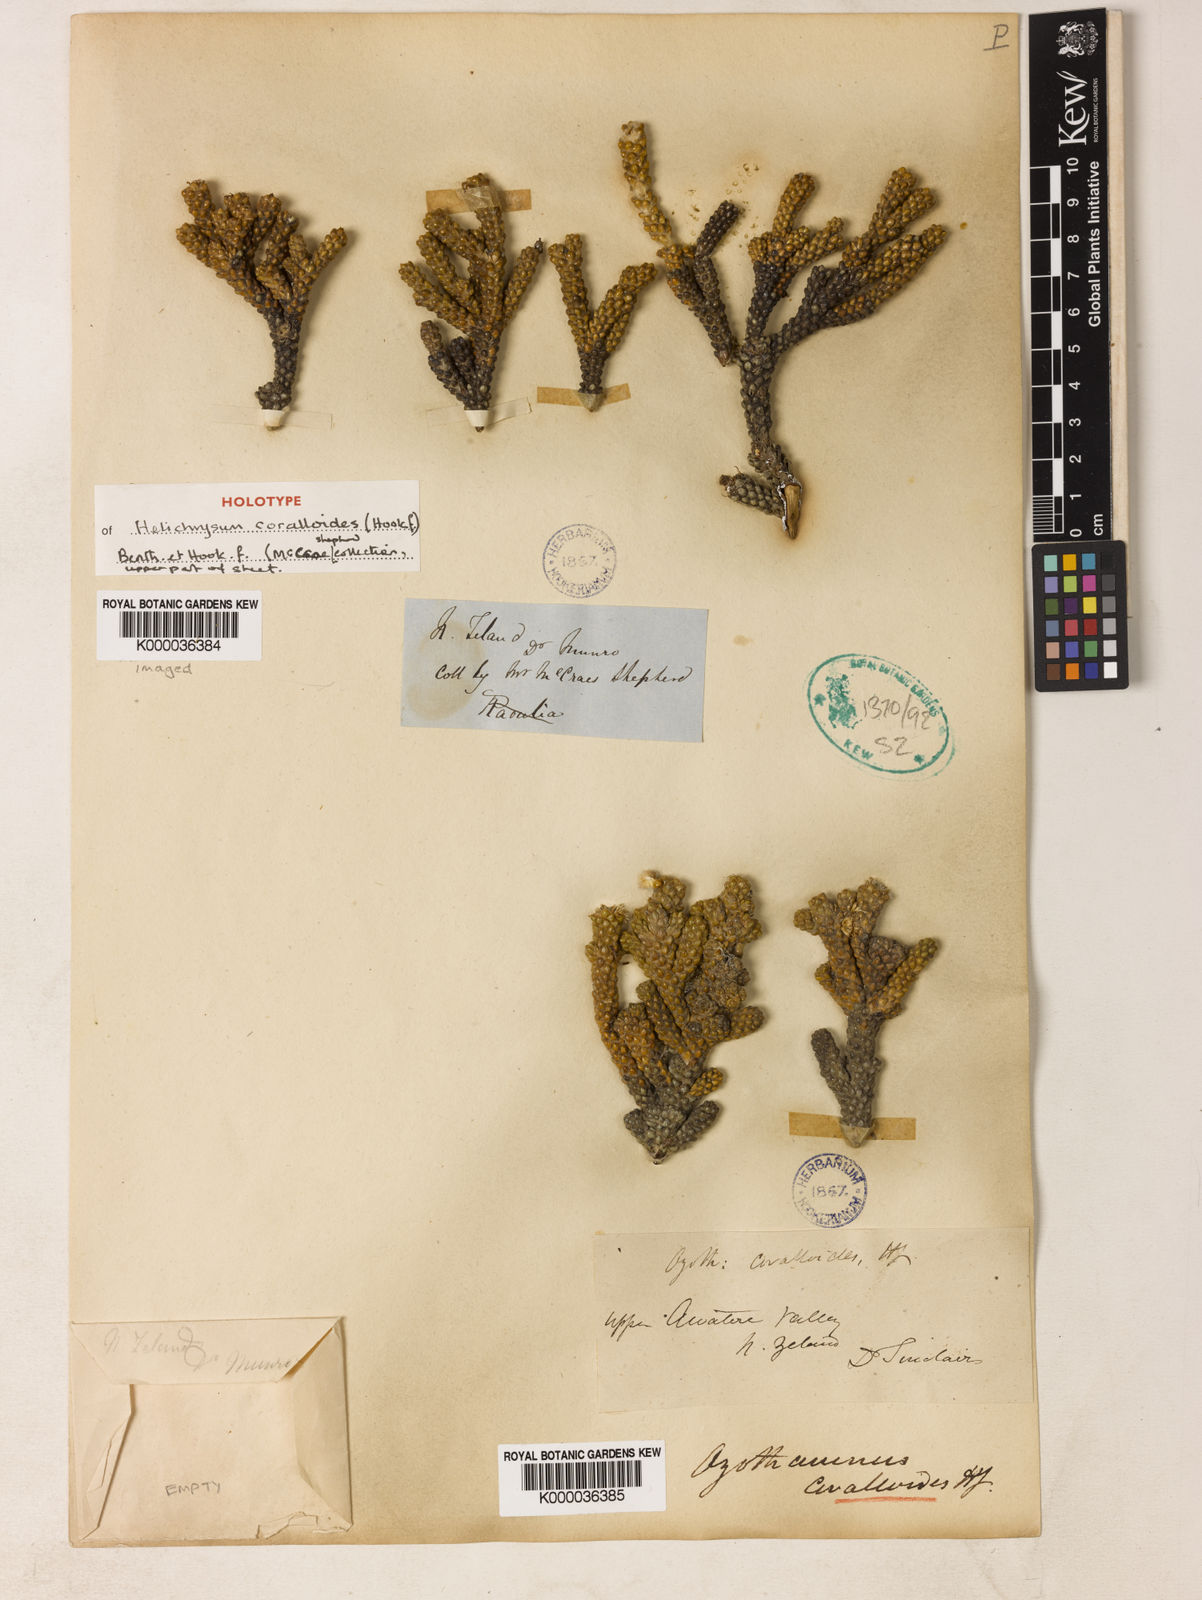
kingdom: Plantae
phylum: Tracheophyta
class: Magnoliopsida
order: Asterales
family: Asteraceae
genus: Ozothamnus
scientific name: Ozothamnus coralloides
